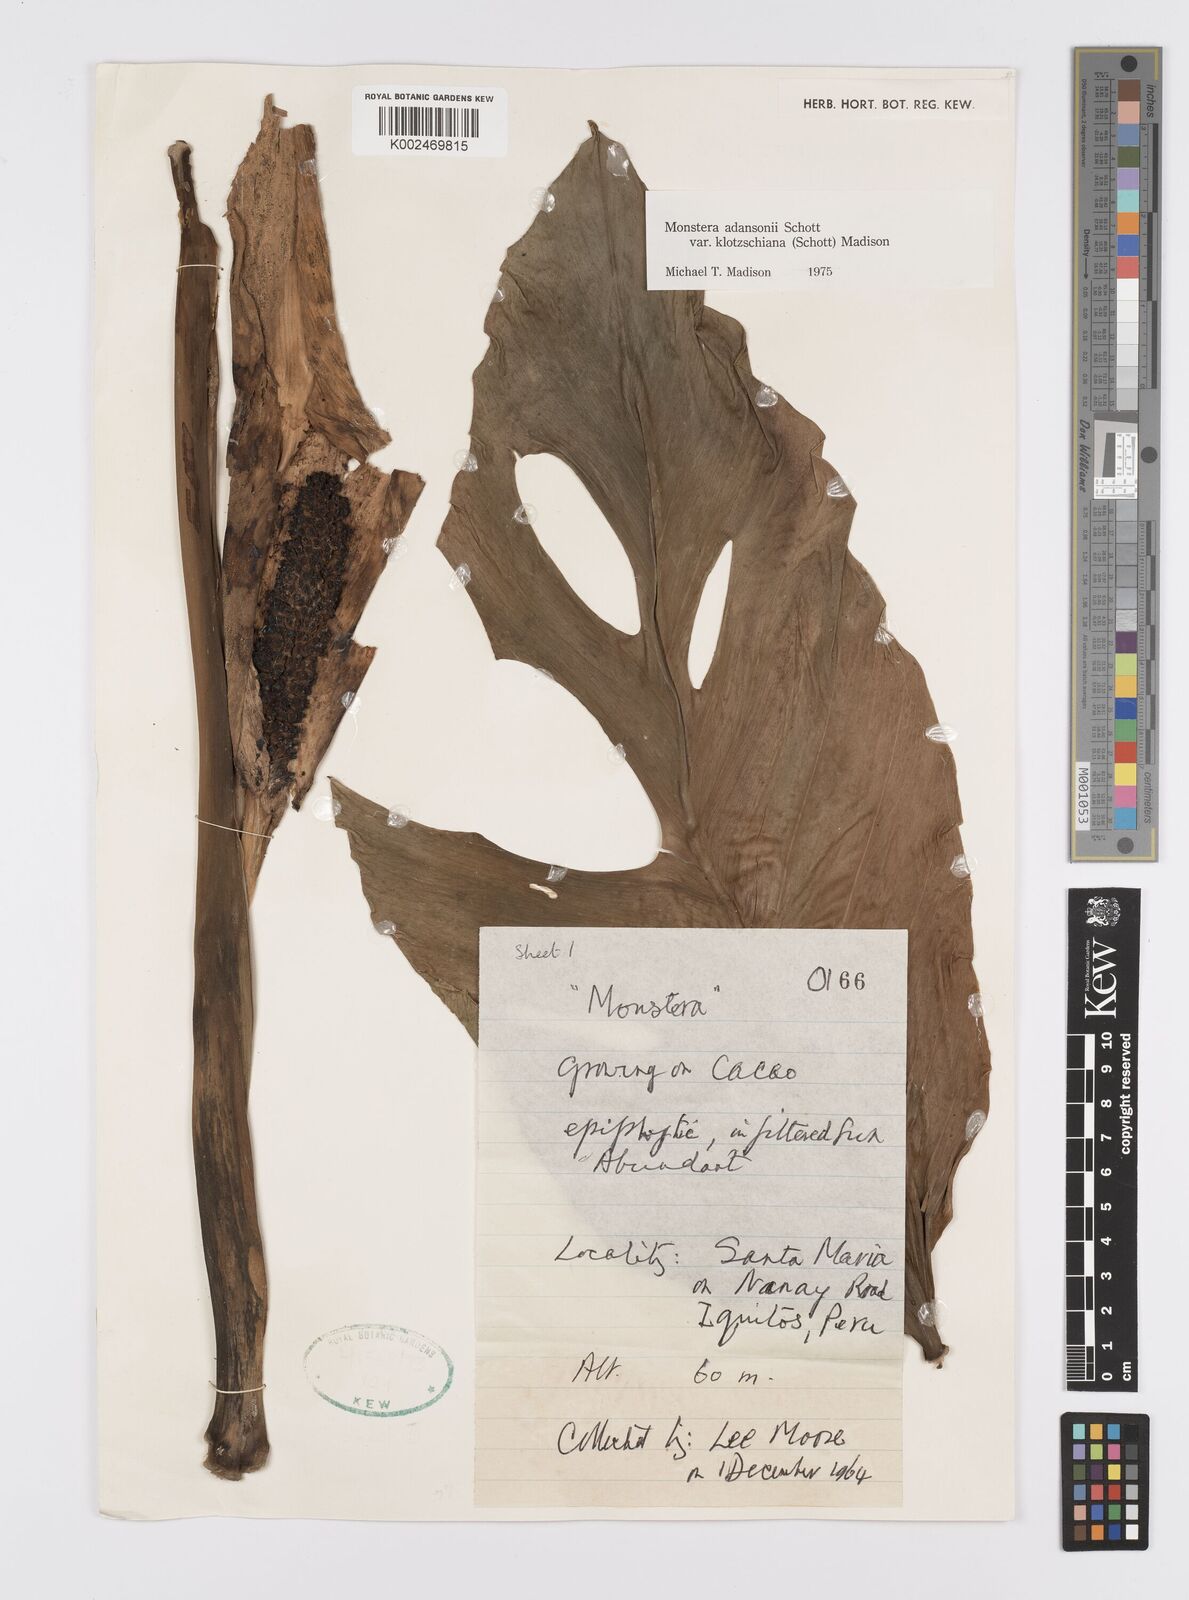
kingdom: Plantae
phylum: Tracheophyta
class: Liliopsida
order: Alismatales
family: Araceae
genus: Monstera
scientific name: Monstera adansonii
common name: Tarovine
